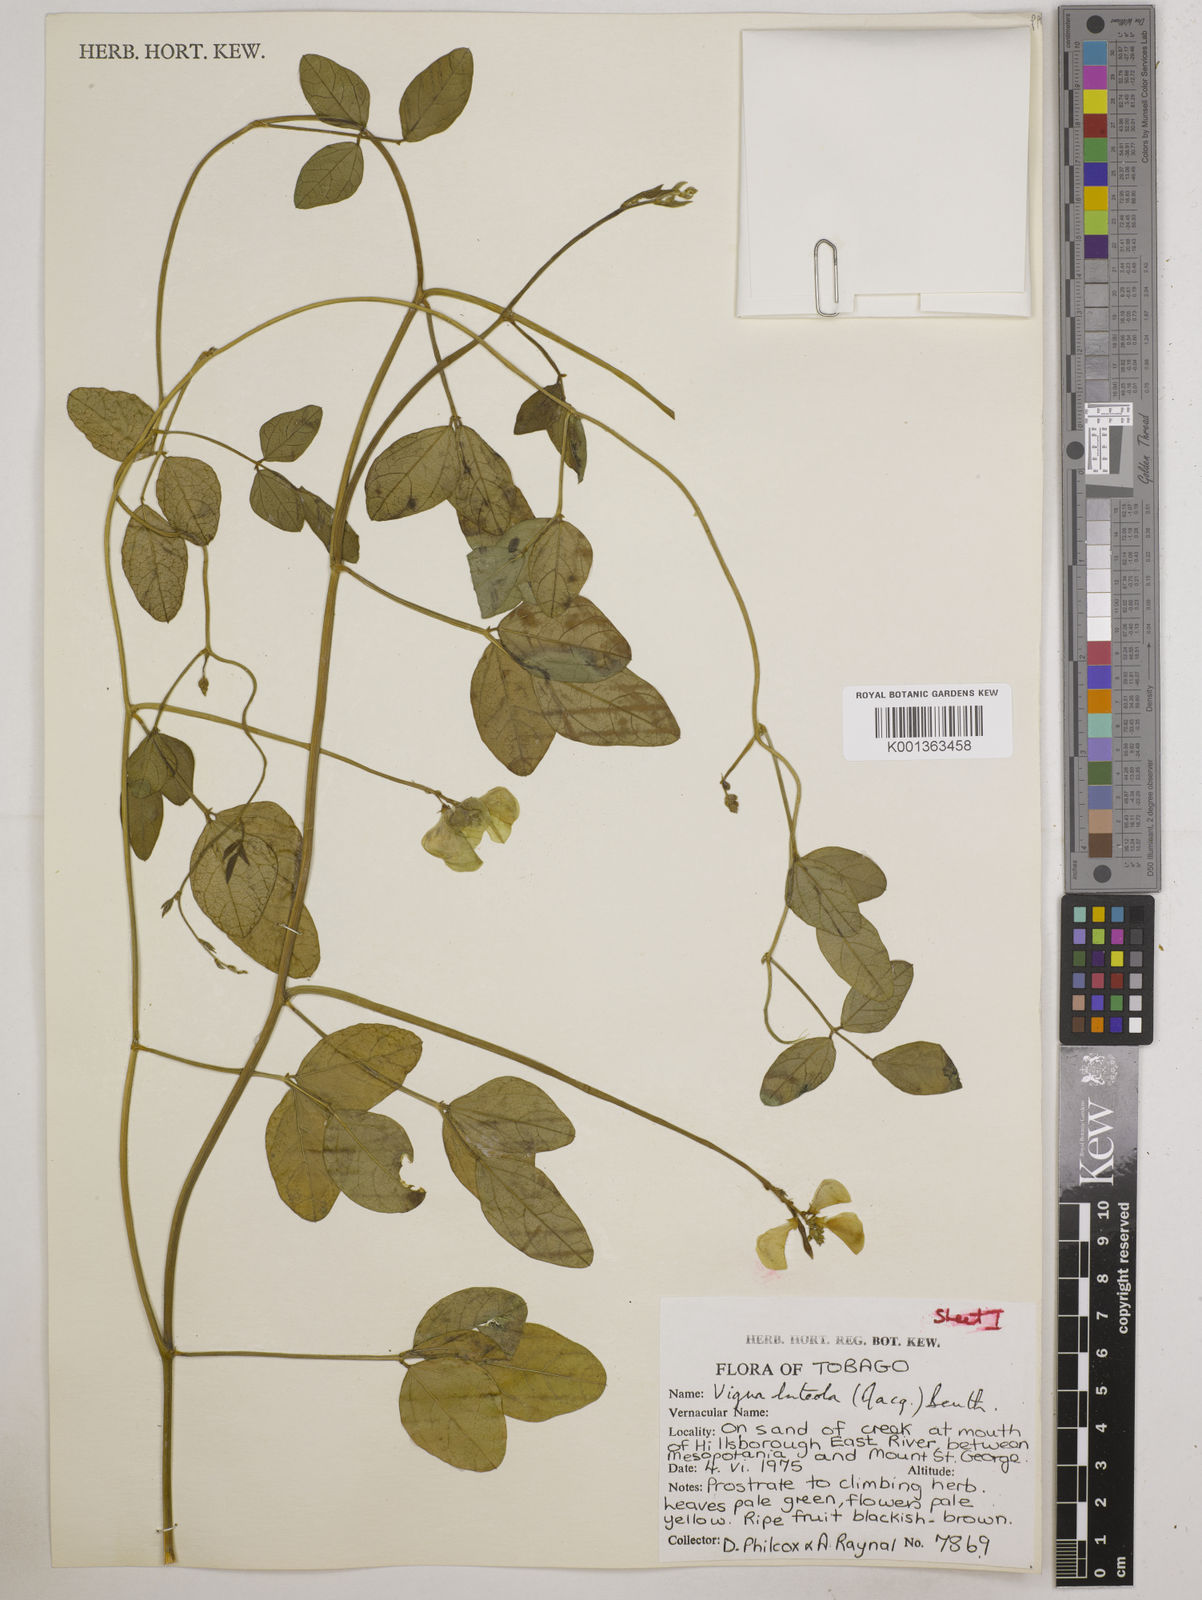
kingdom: Plantae
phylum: Tracheophyta
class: Magnoliopsida
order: Fabales
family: Fabaceae
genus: Vigna
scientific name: Vigna luteola
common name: Hairypod cowpea
